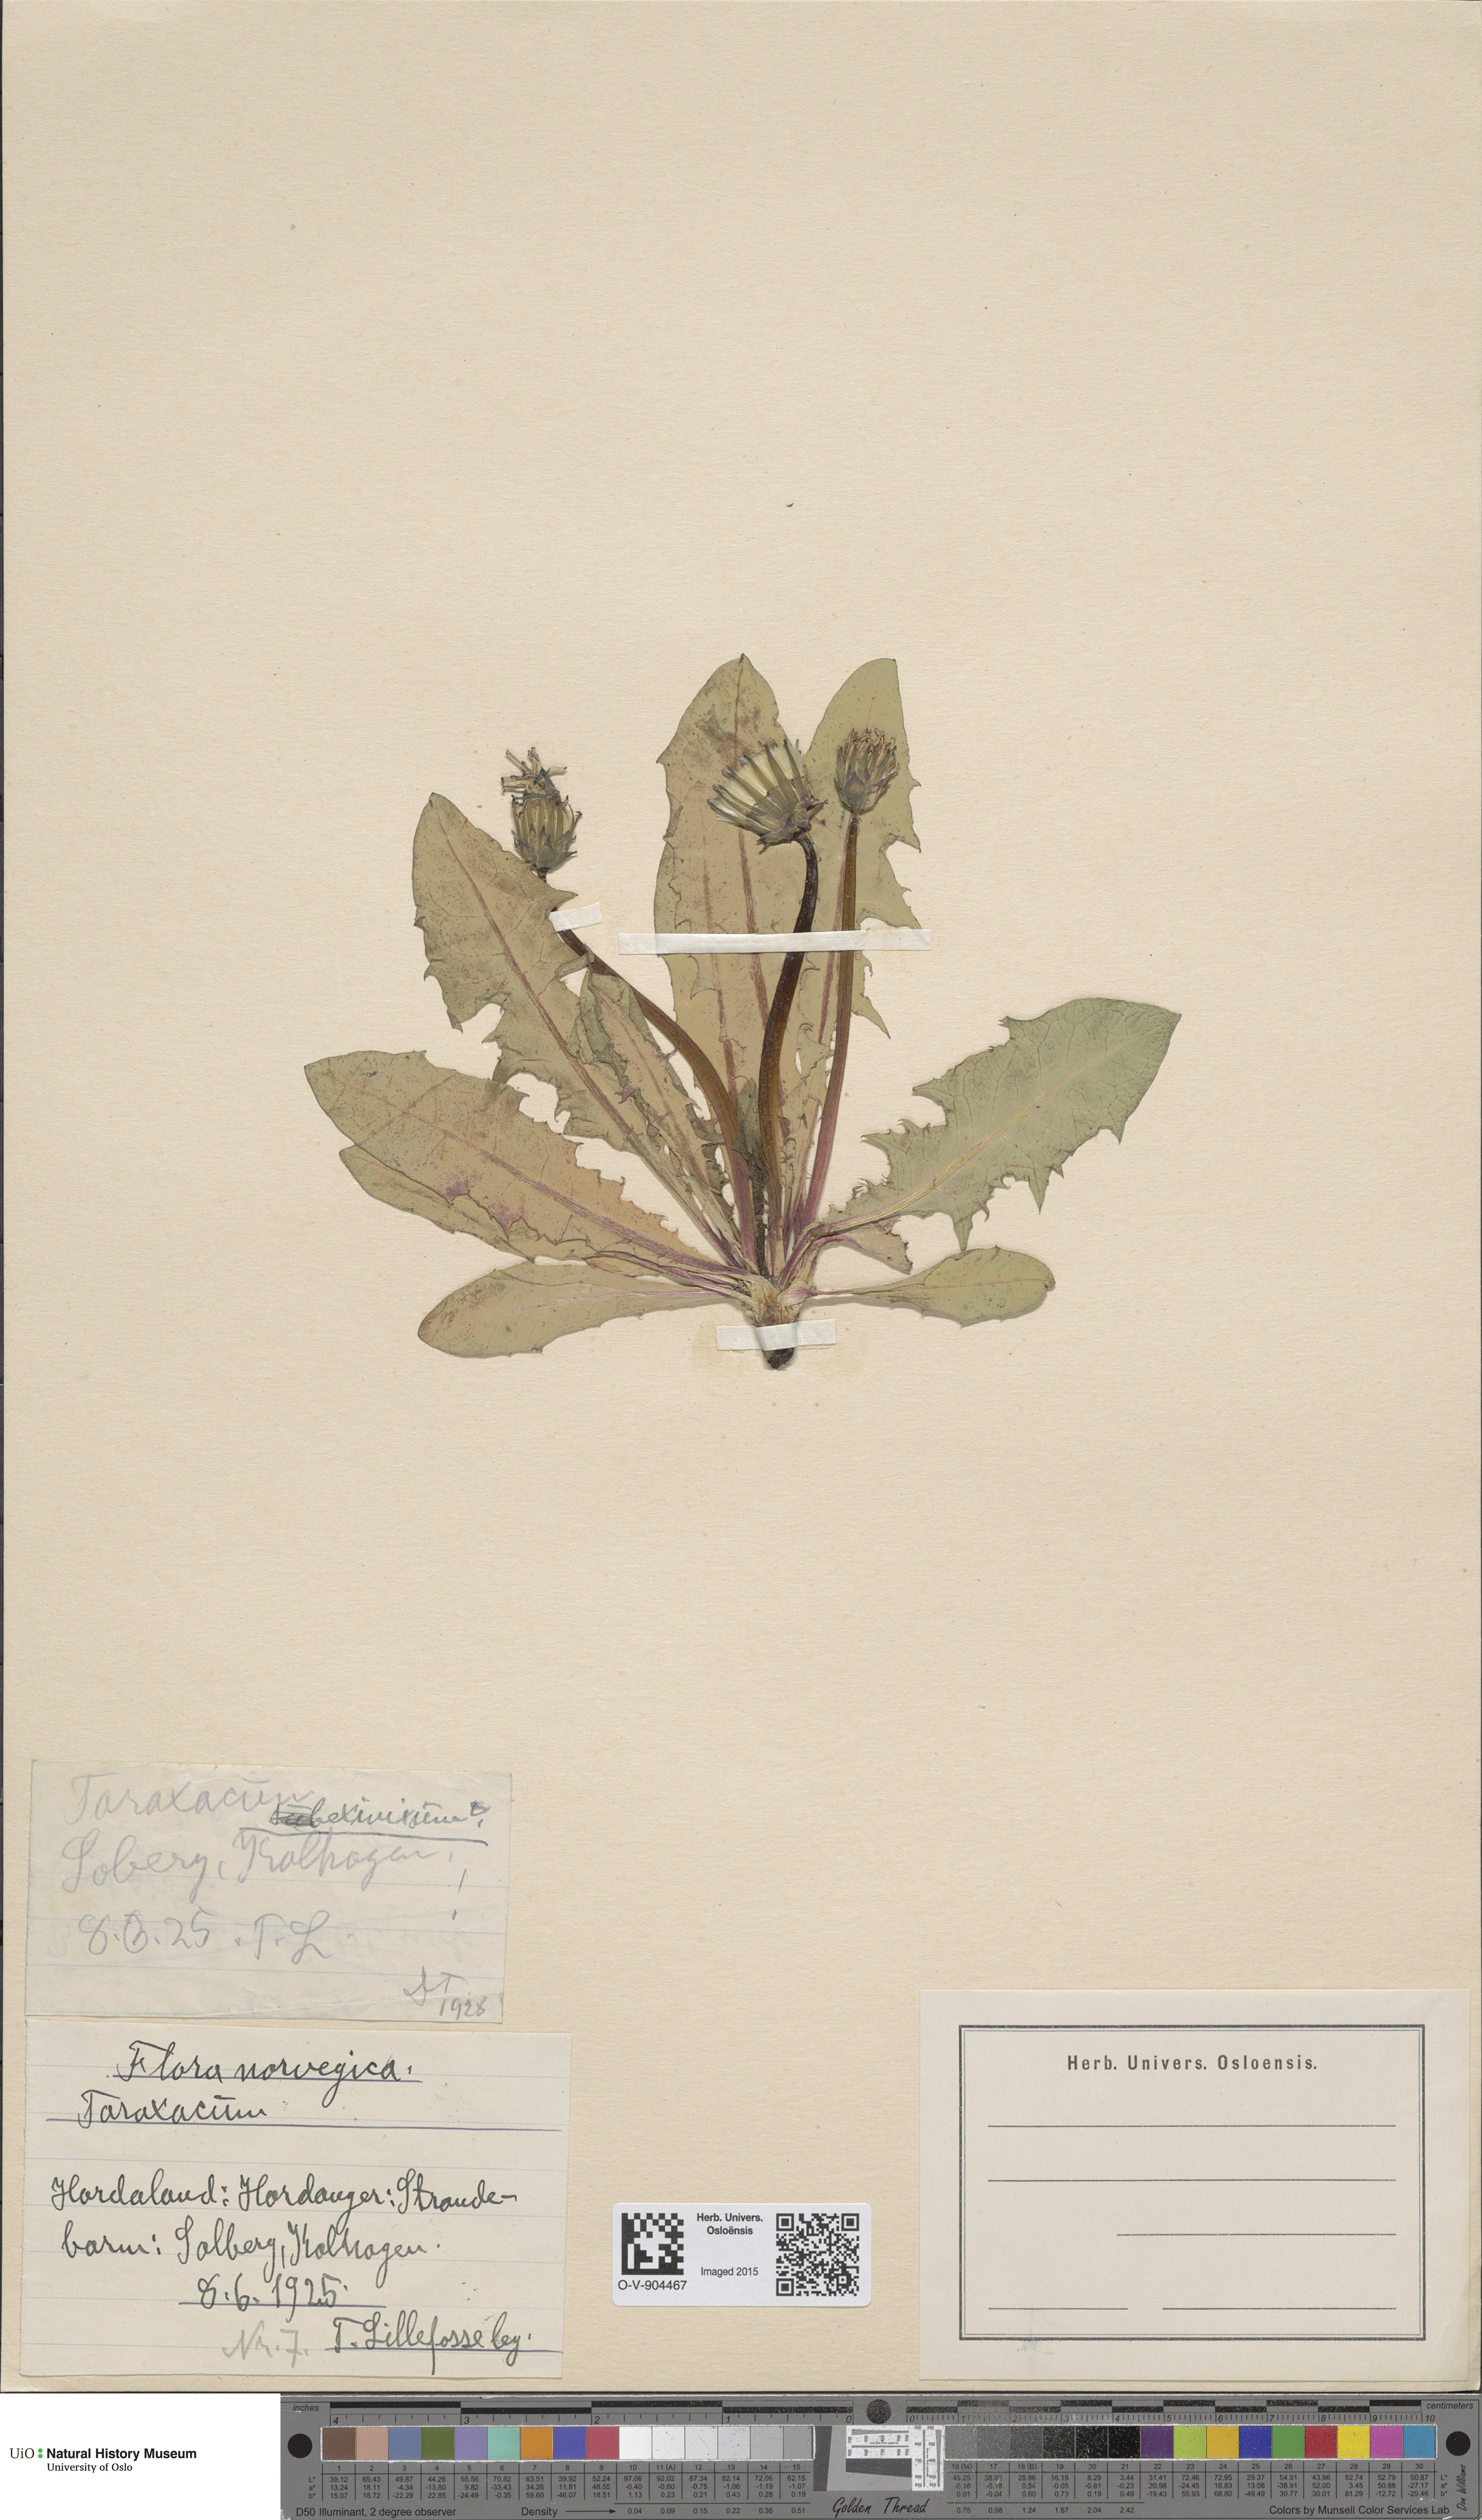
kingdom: Plantae
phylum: Tracheophyta
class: Magnoliopsida
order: Asterales
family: Asteraceae
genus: Taraxacum
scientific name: Taraxacum eximium
